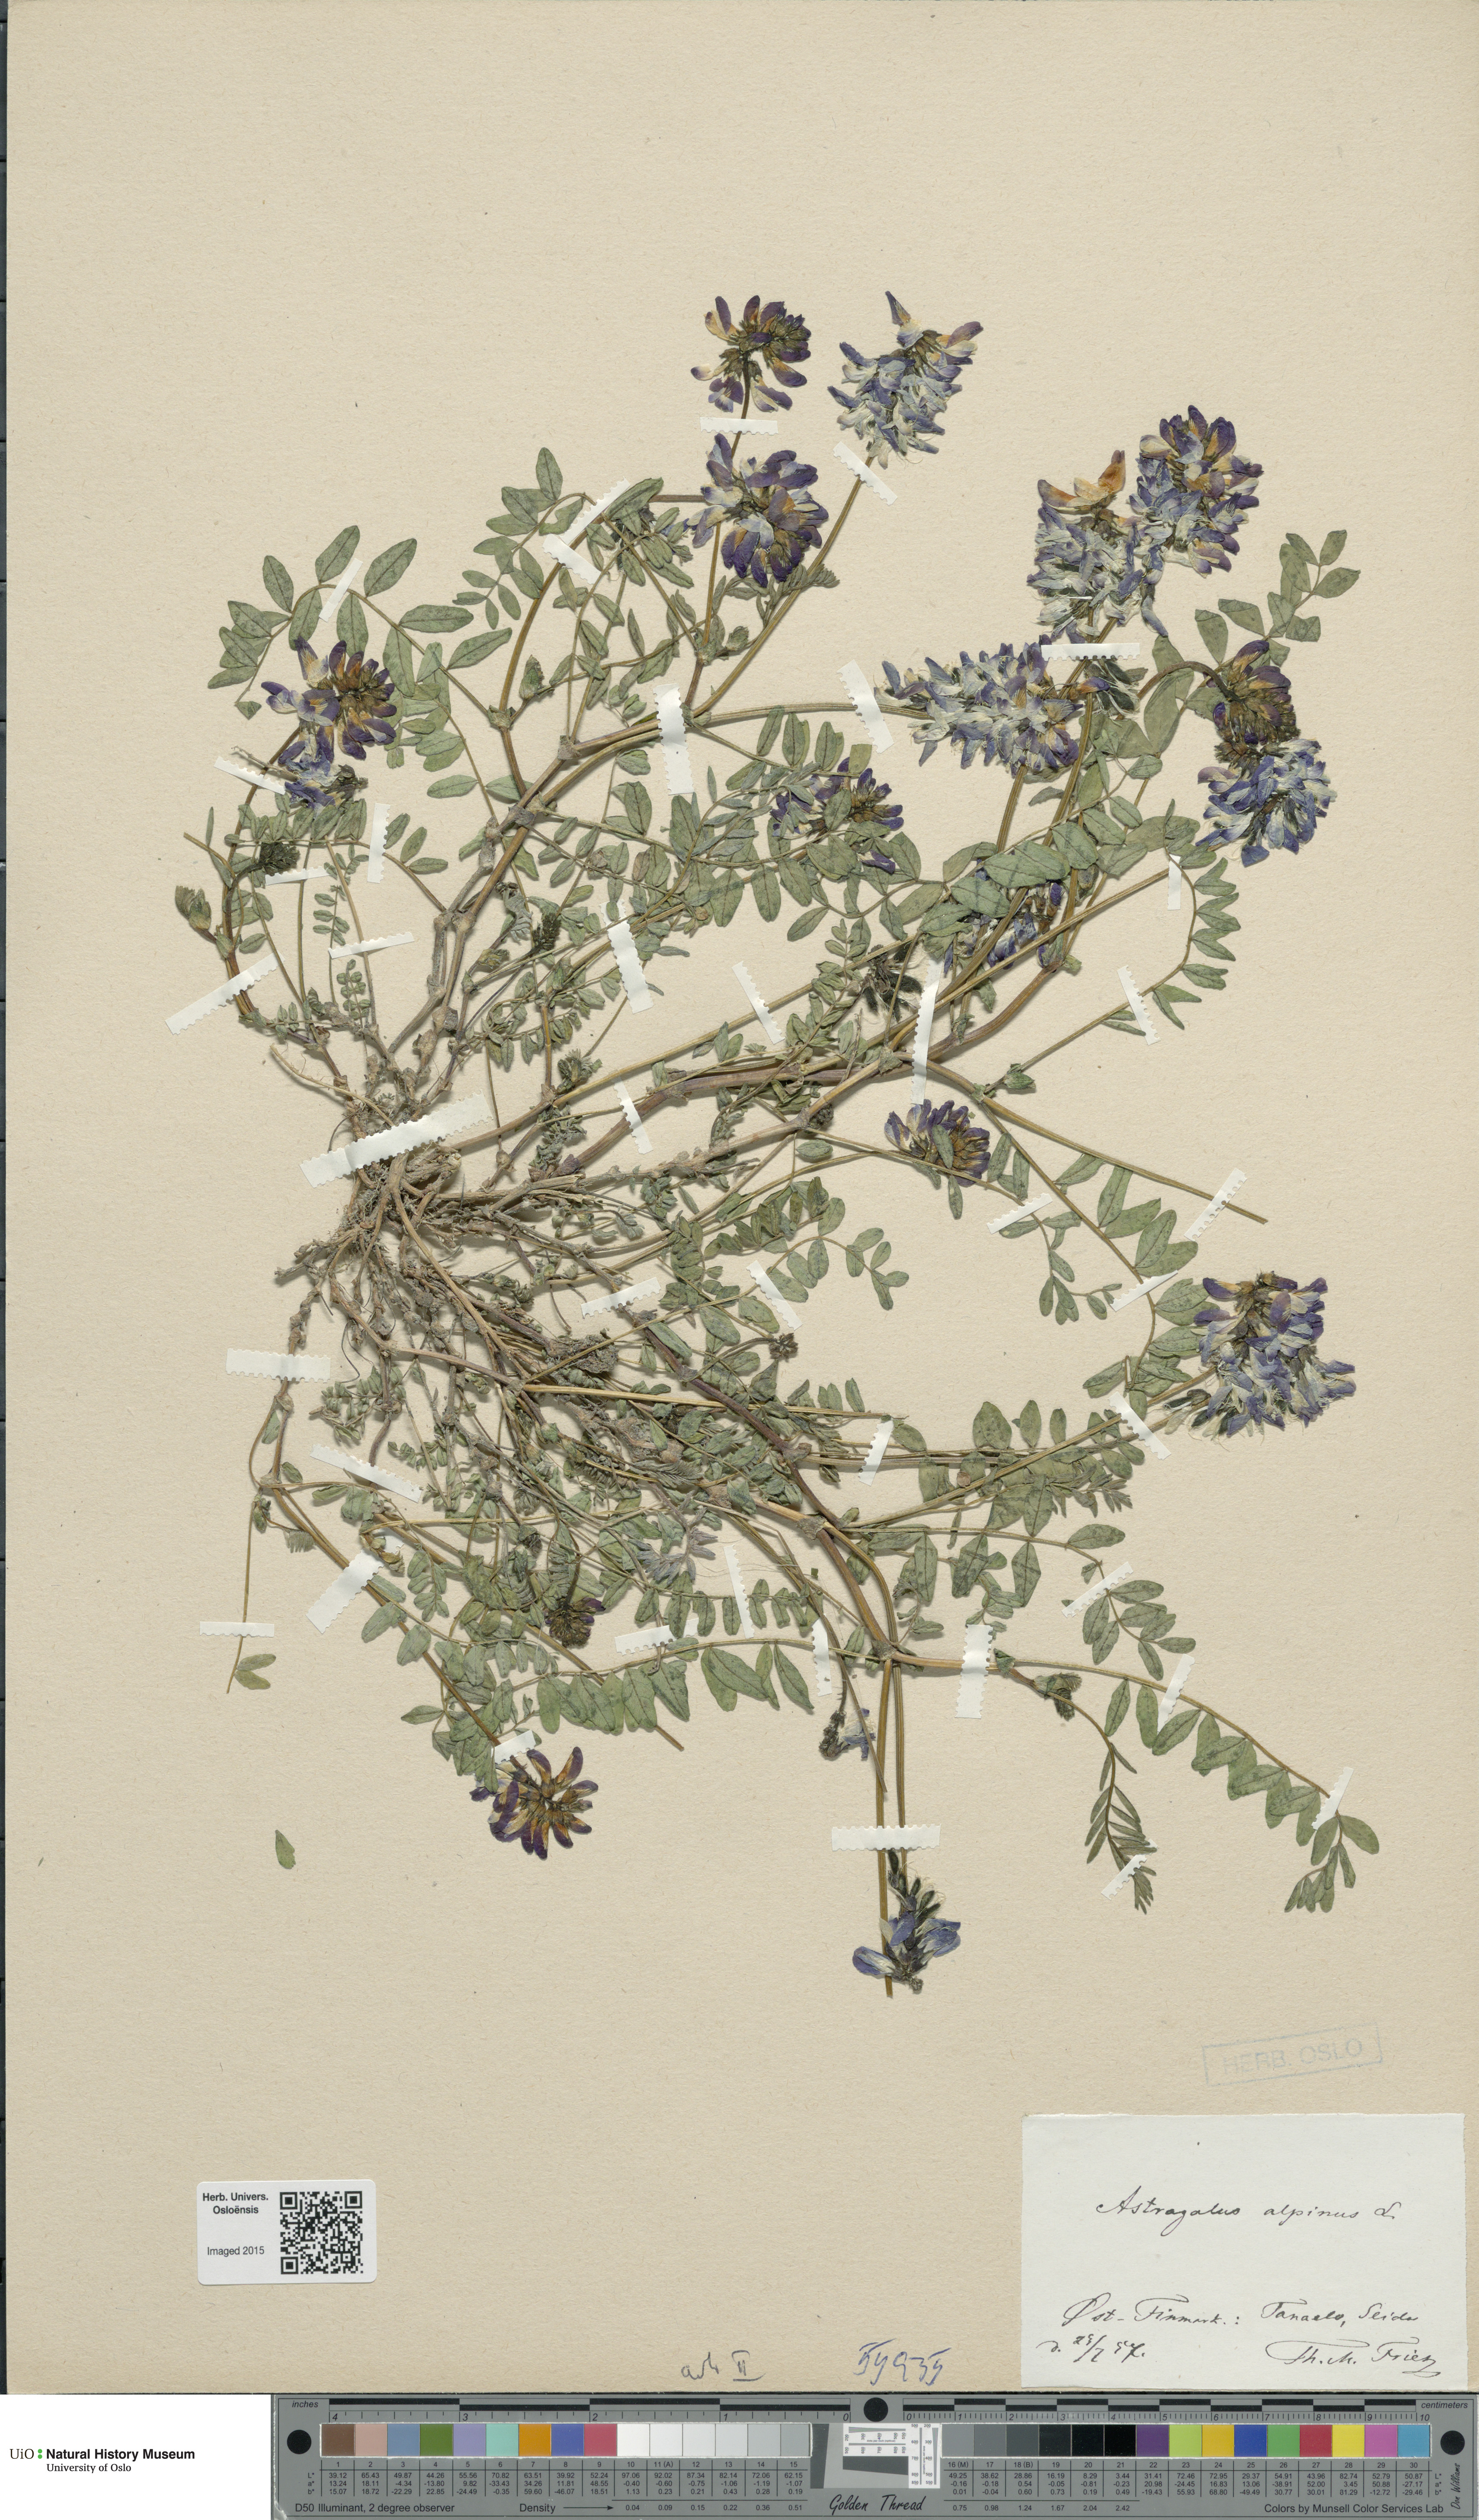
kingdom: Plantae
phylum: Tracheophyta
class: Magnoliopsida
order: Fabales
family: Fabaceae
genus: Astragalus
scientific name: Astragalus norvegicus
